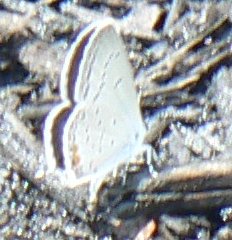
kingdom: Animalia
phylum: Arthropoda
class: Insecta
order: Lepidoptera
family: Lycaenidae
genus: Elkalyce
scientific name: Elkalyce comyntas
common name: Eastern Tailed-Blue
